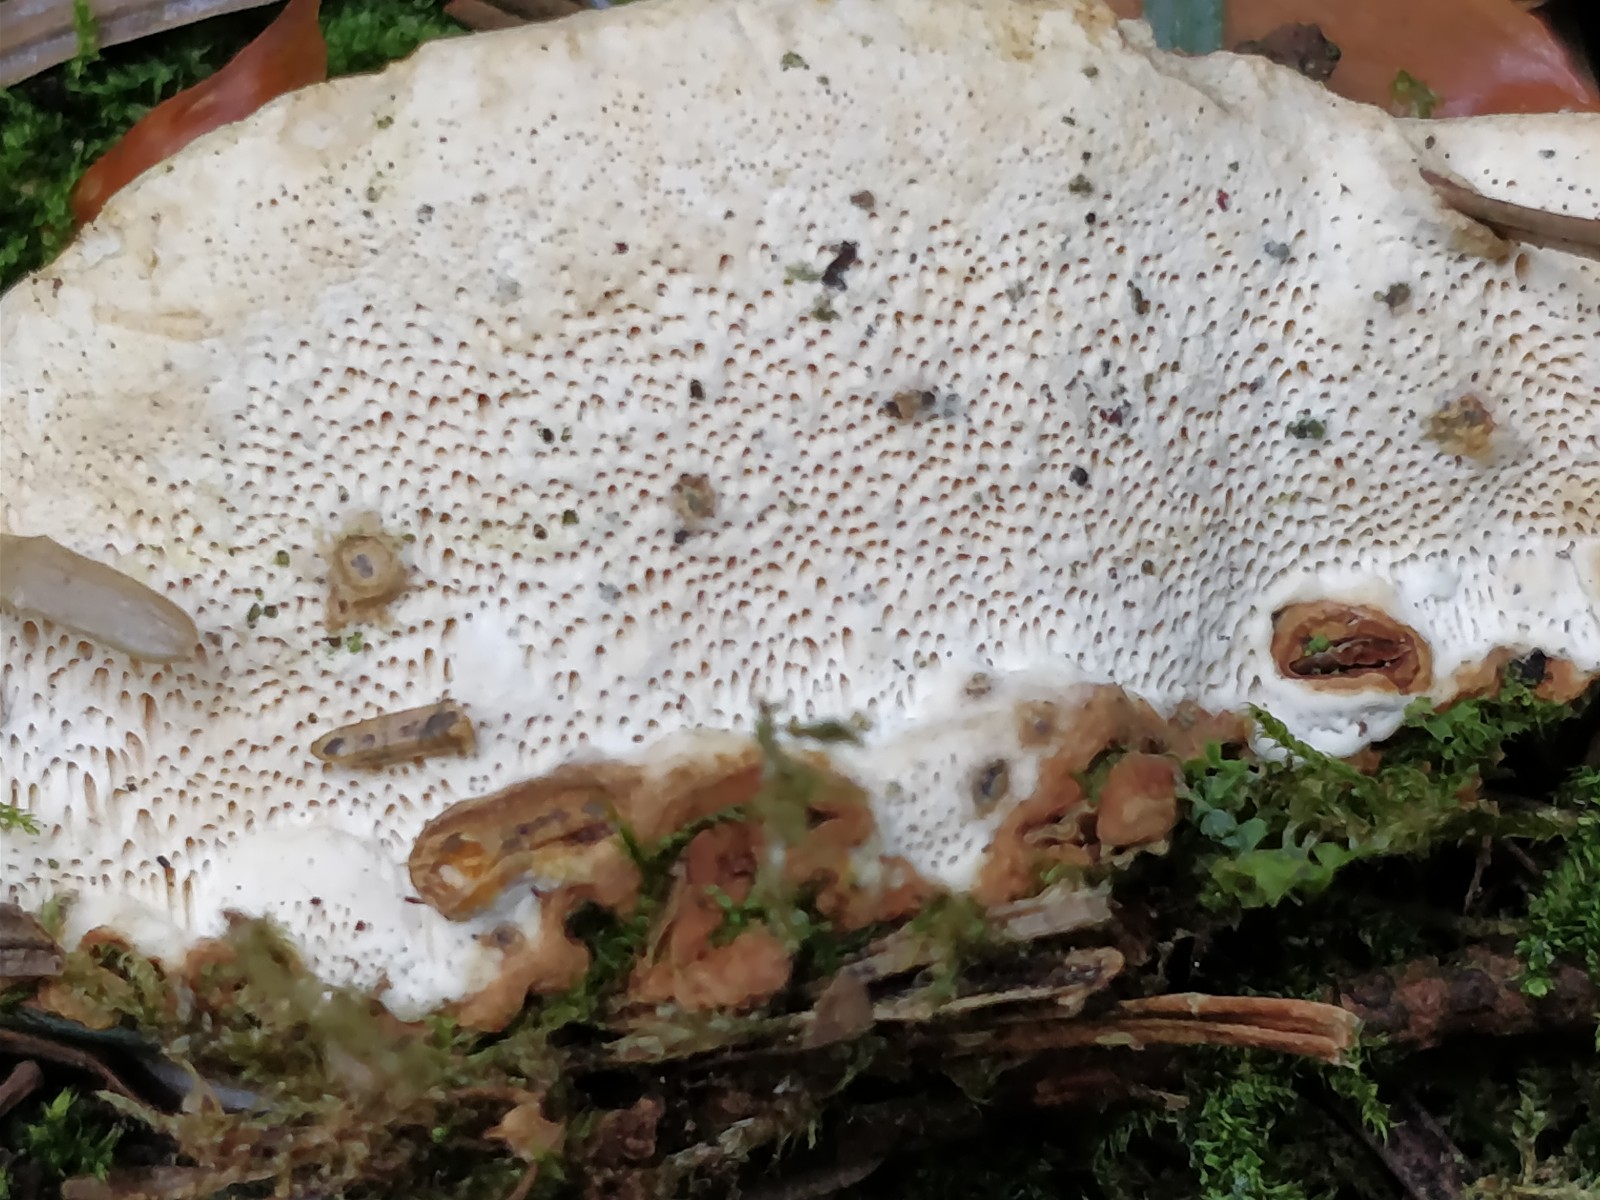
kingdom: Fungi
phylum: Basidiomycota
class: Agaricomycetes
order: Russulales
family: Bondarzewiaceae
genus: Heterobasidion
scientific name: Heterobasidion annosum
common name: almindelig rodfordærver
